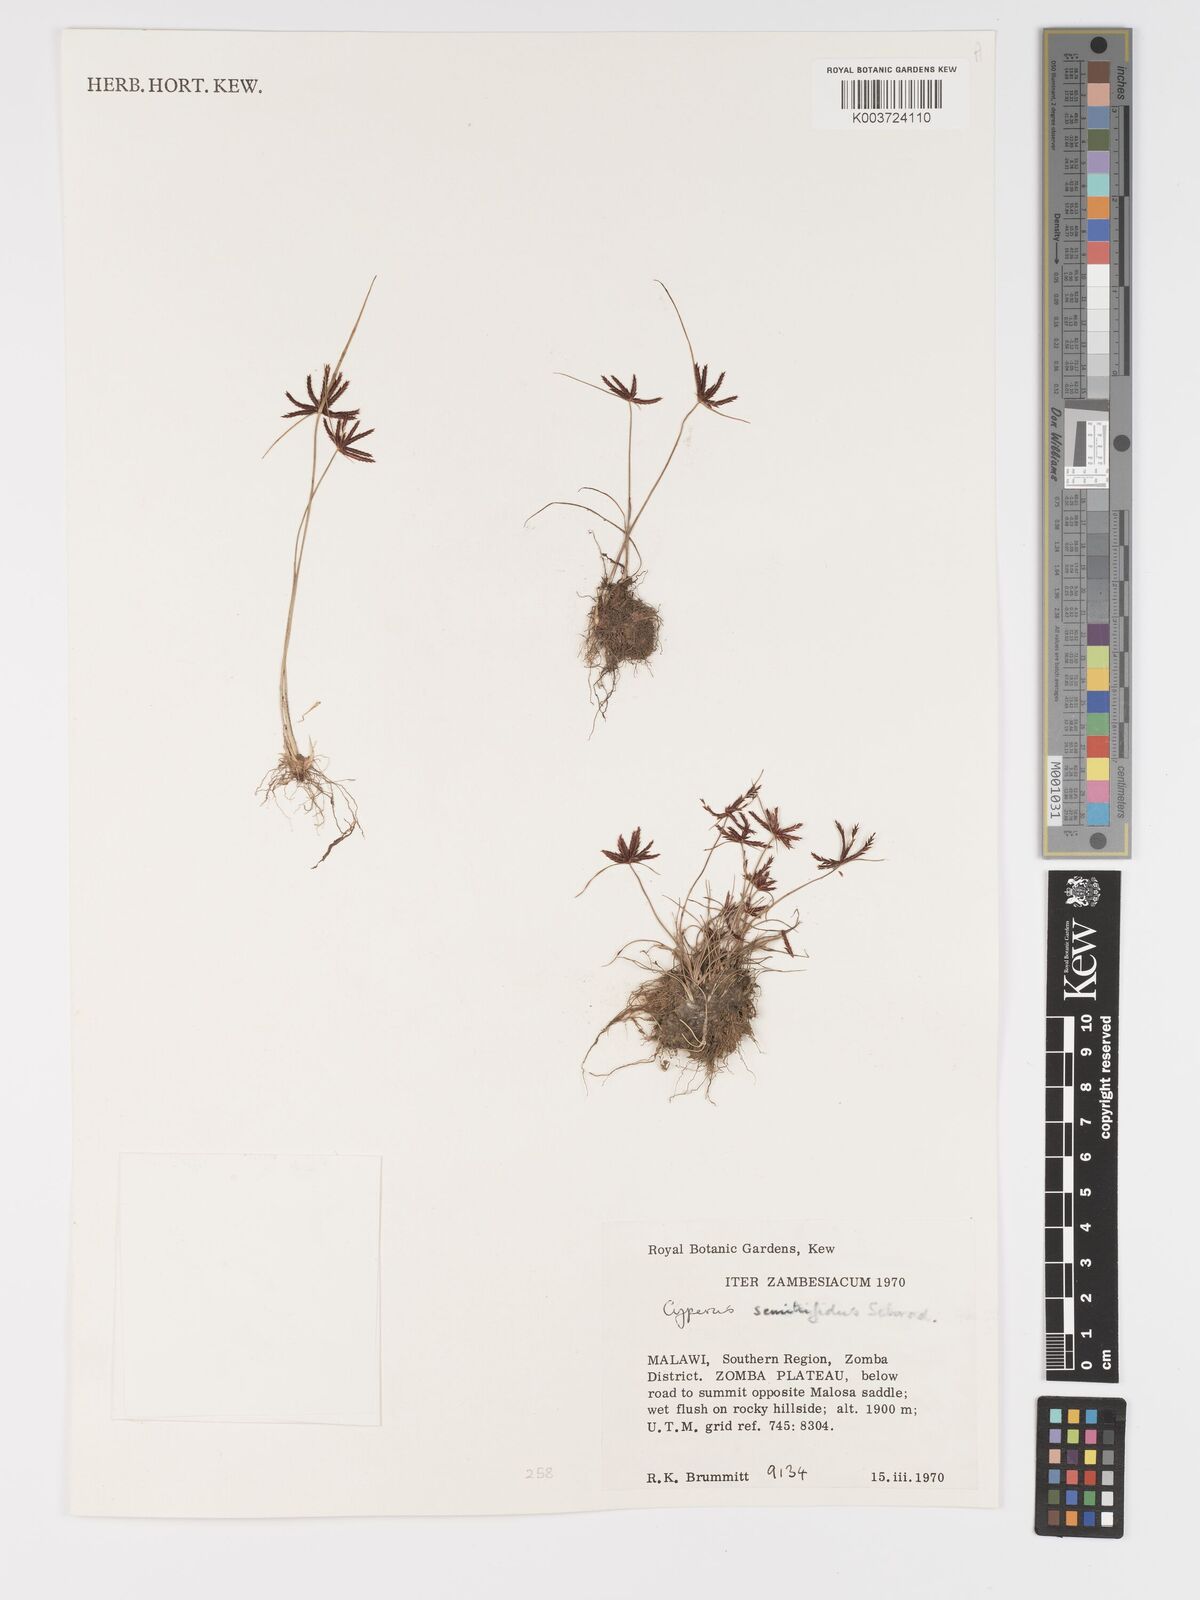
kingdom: Plantae
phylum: Tracheophyta
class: Liliopsida
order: Poales
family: Cyperaceae
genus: Cyperus
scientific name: Cyperus semitrifidus
